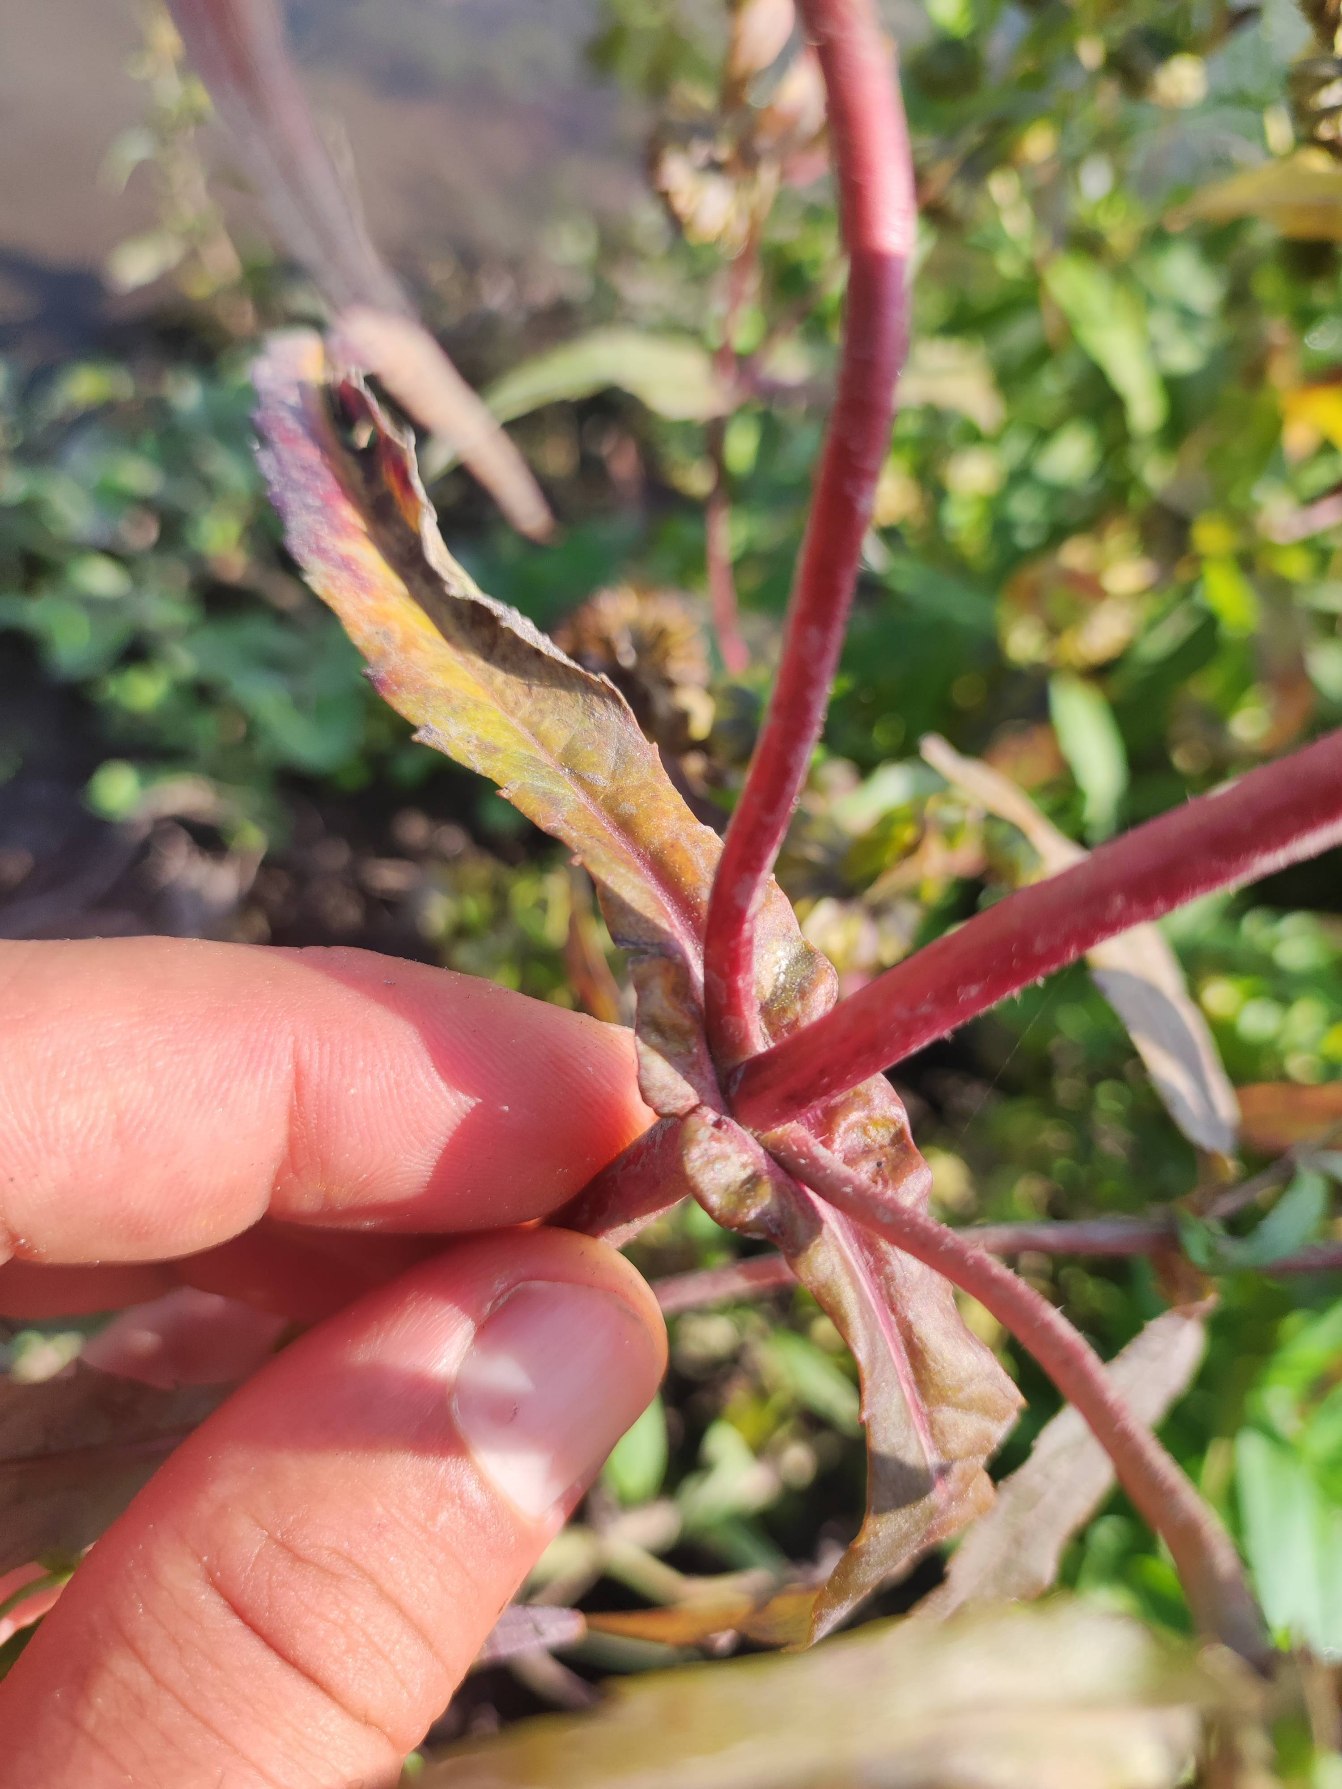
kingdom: Plantae
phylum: Tracheophyta
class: Magnoliopsida
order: Asterales
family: Asteraceae
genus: Bidens
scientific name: Bidens cernua
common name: Nikkende brøndsel
